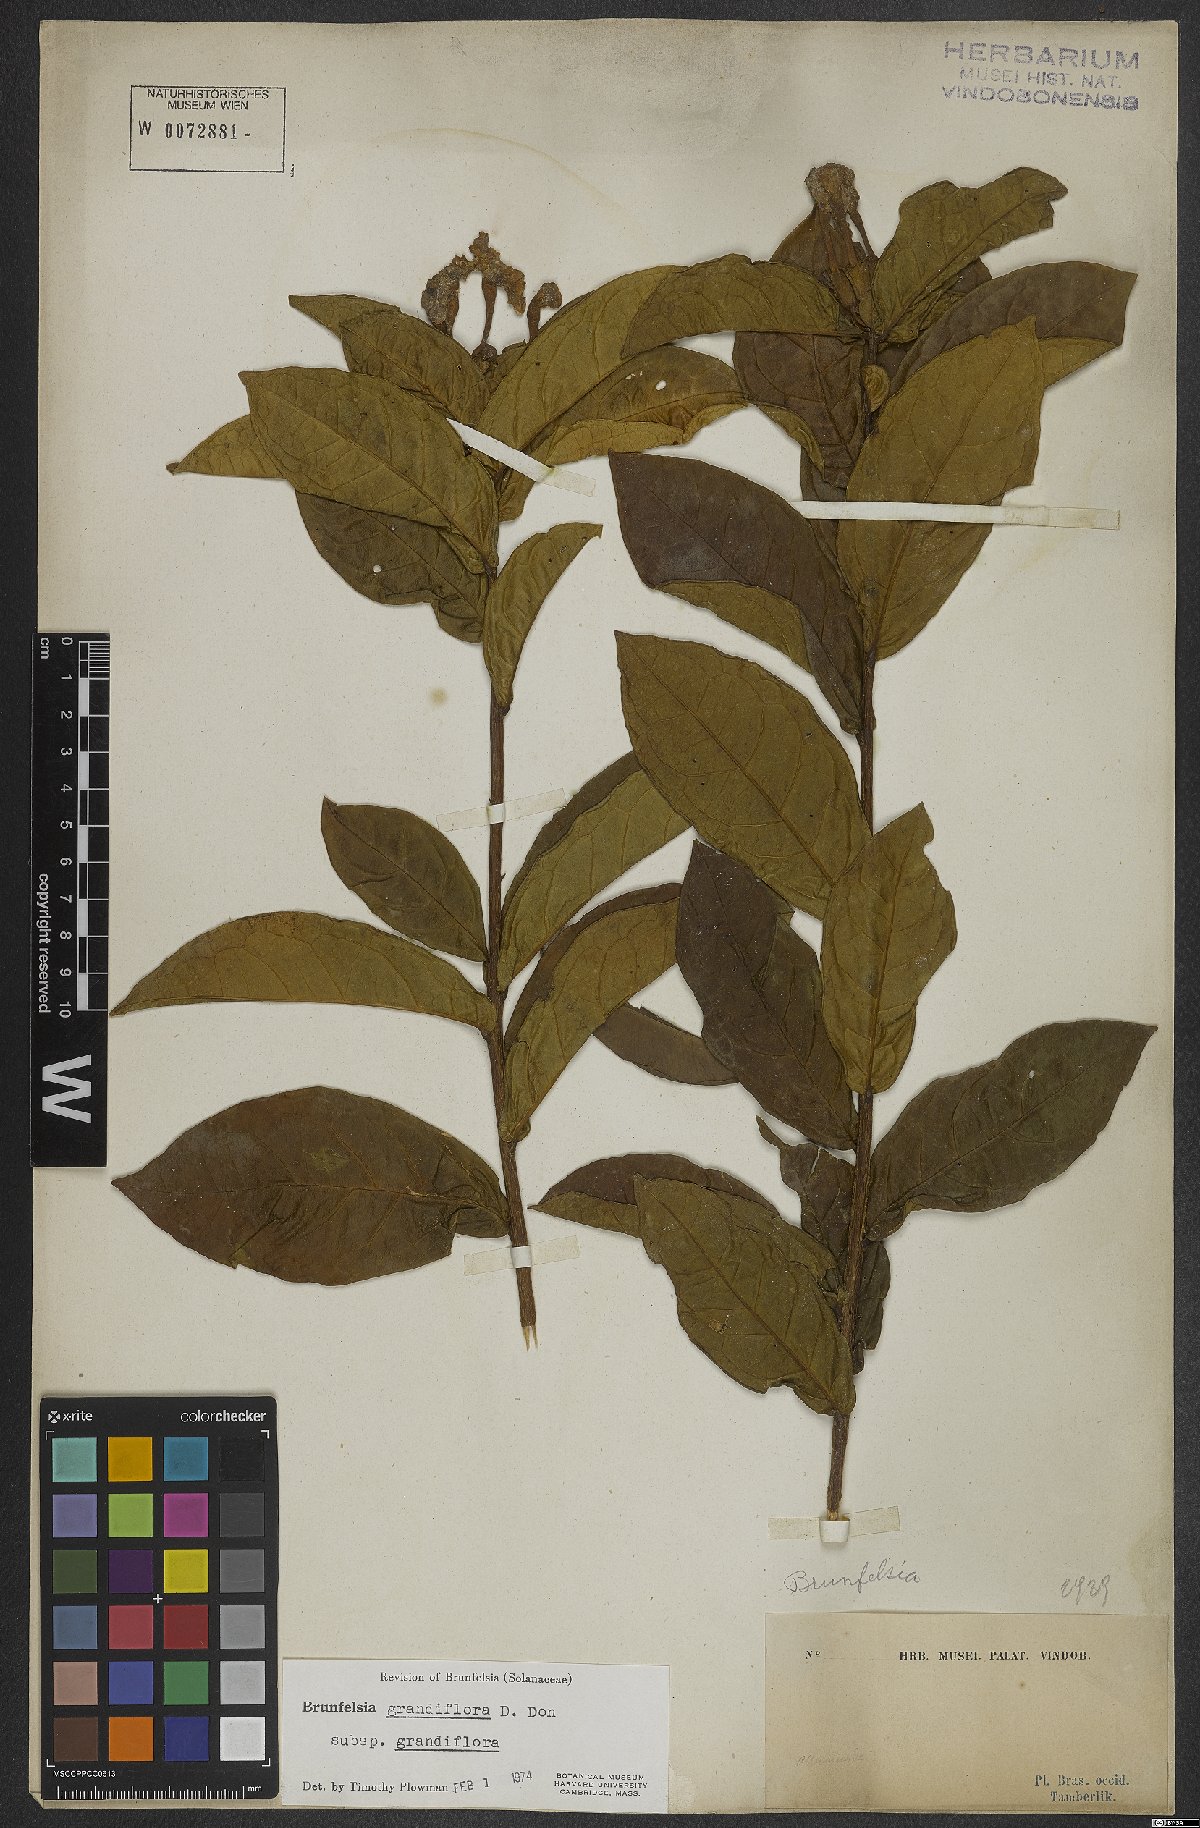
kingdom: Plantae
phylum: Tracheophyta
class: Magnoliopsida
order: Solanales
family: Solanaceae
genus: Brunfelsia
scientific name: Brunfelsia grandiflora
